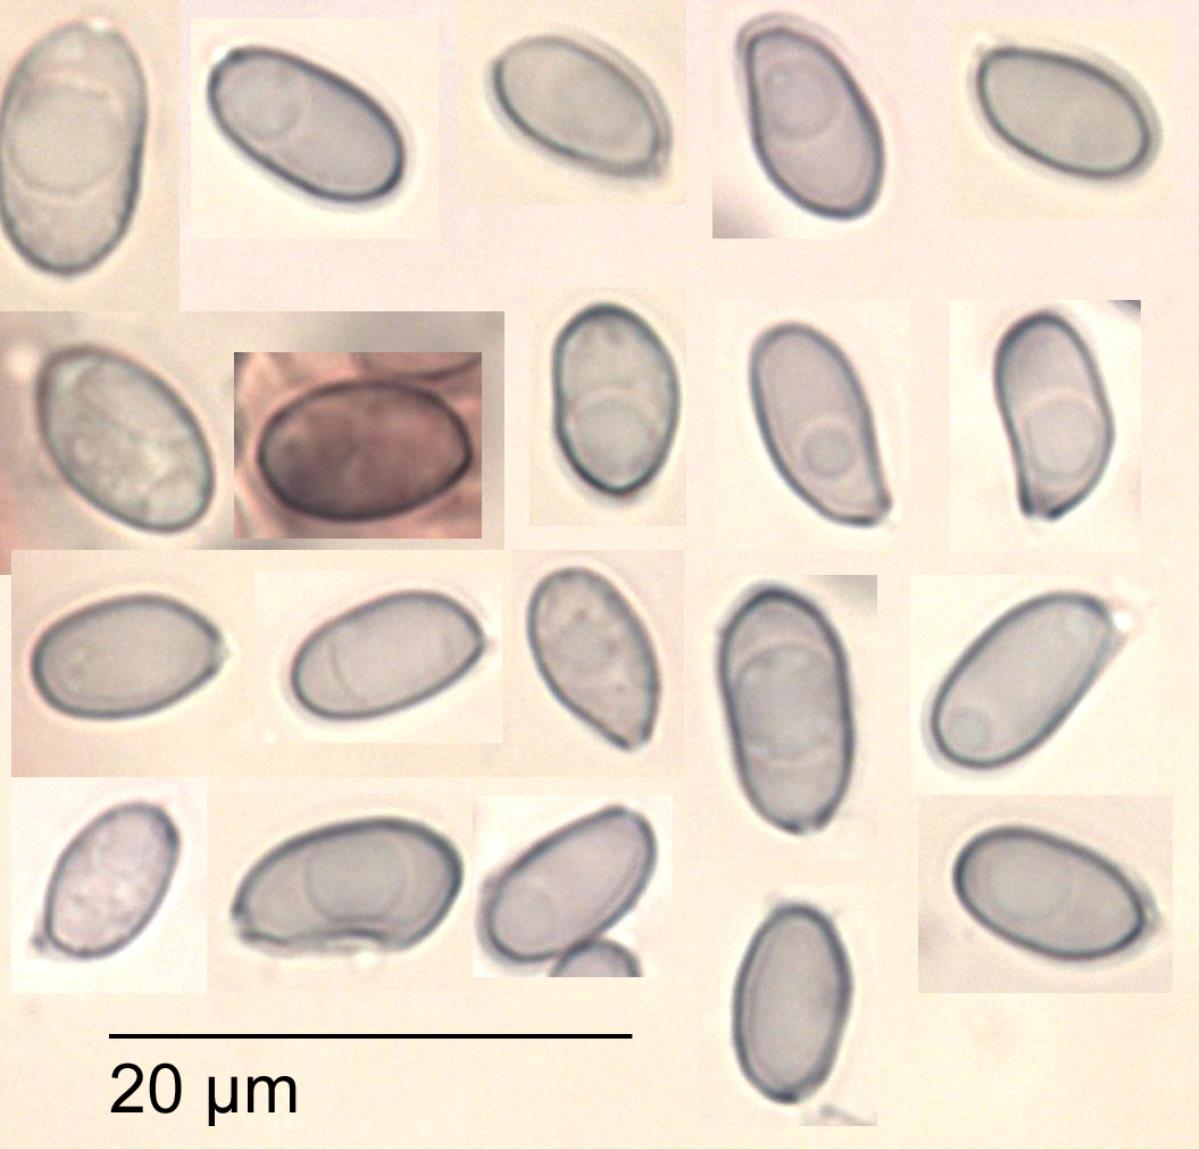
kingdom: Fungi
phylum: Basidiomycota
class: Agaricomycetes
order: Agaricales
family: Mycenaceae
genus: Mycena
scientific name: Mycena austrofilopes
